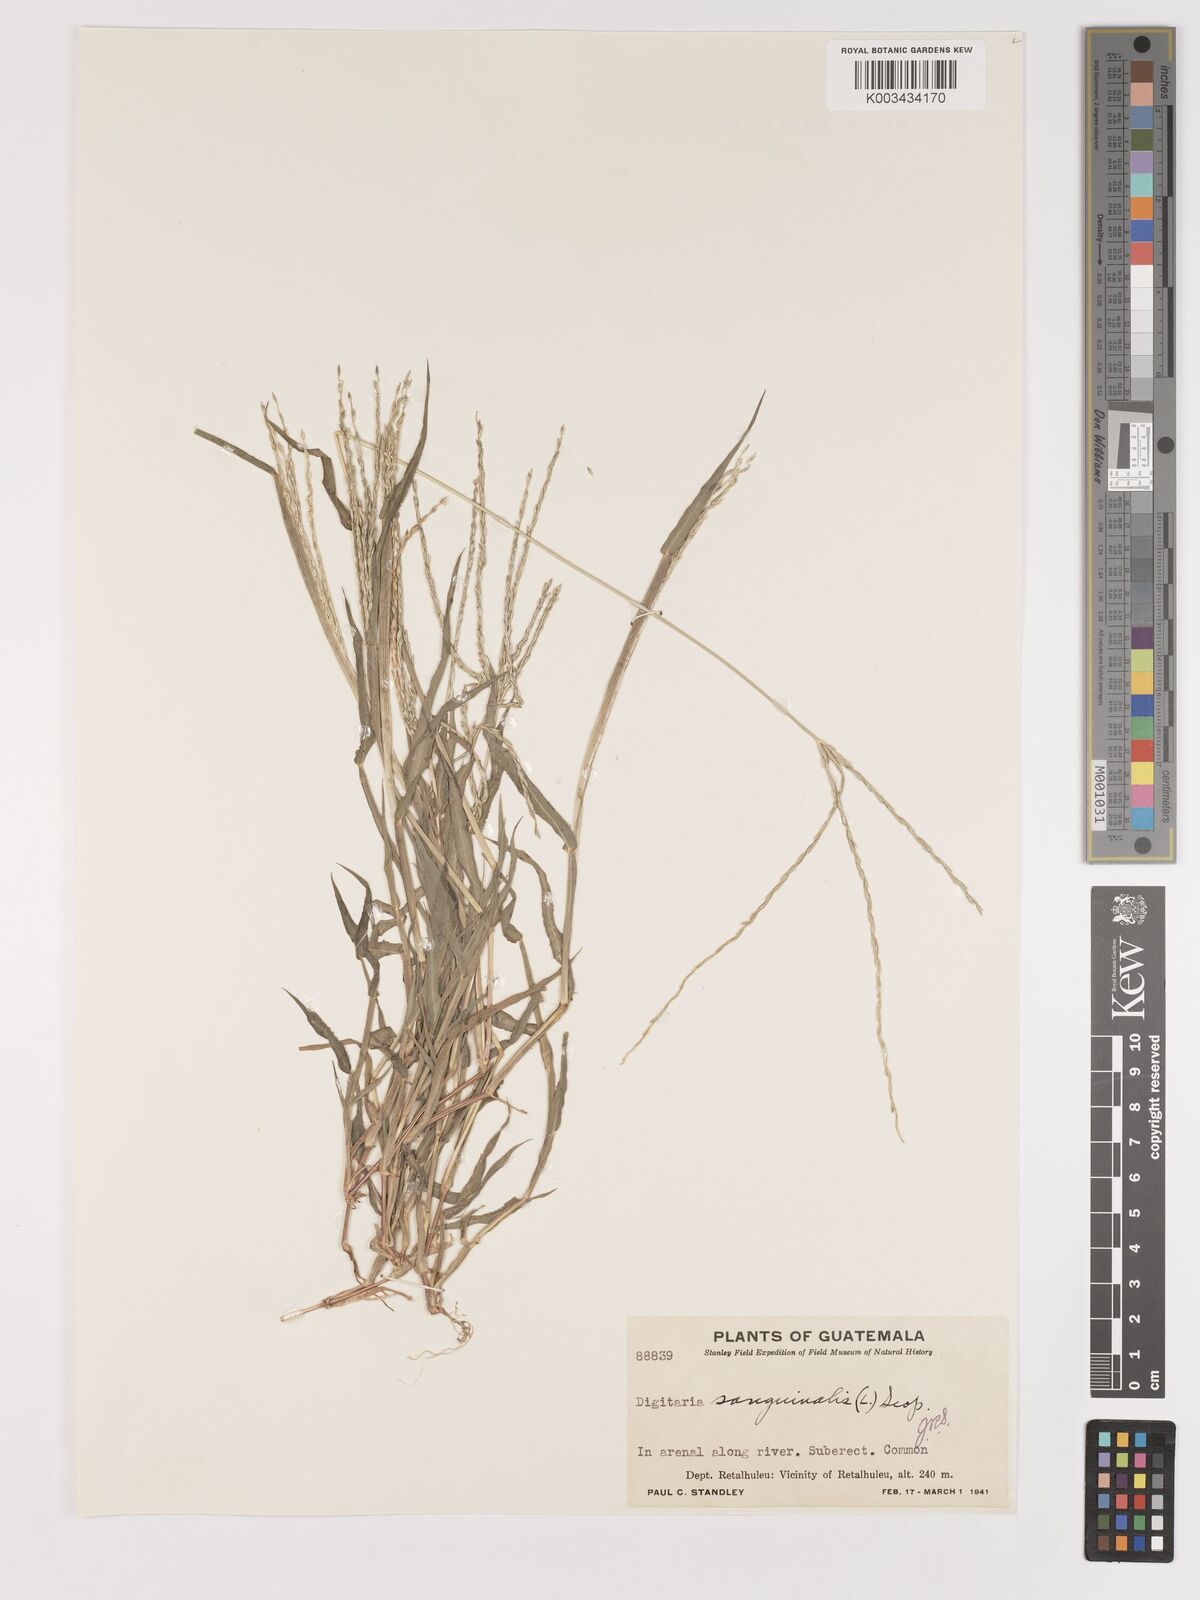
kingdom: Plantae
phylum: Tracheophyta
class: Liliopsida
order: Poales
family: Poaceae
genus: Digitaria
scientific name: Digitaria ciliaris
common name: Tropical finger-grass
